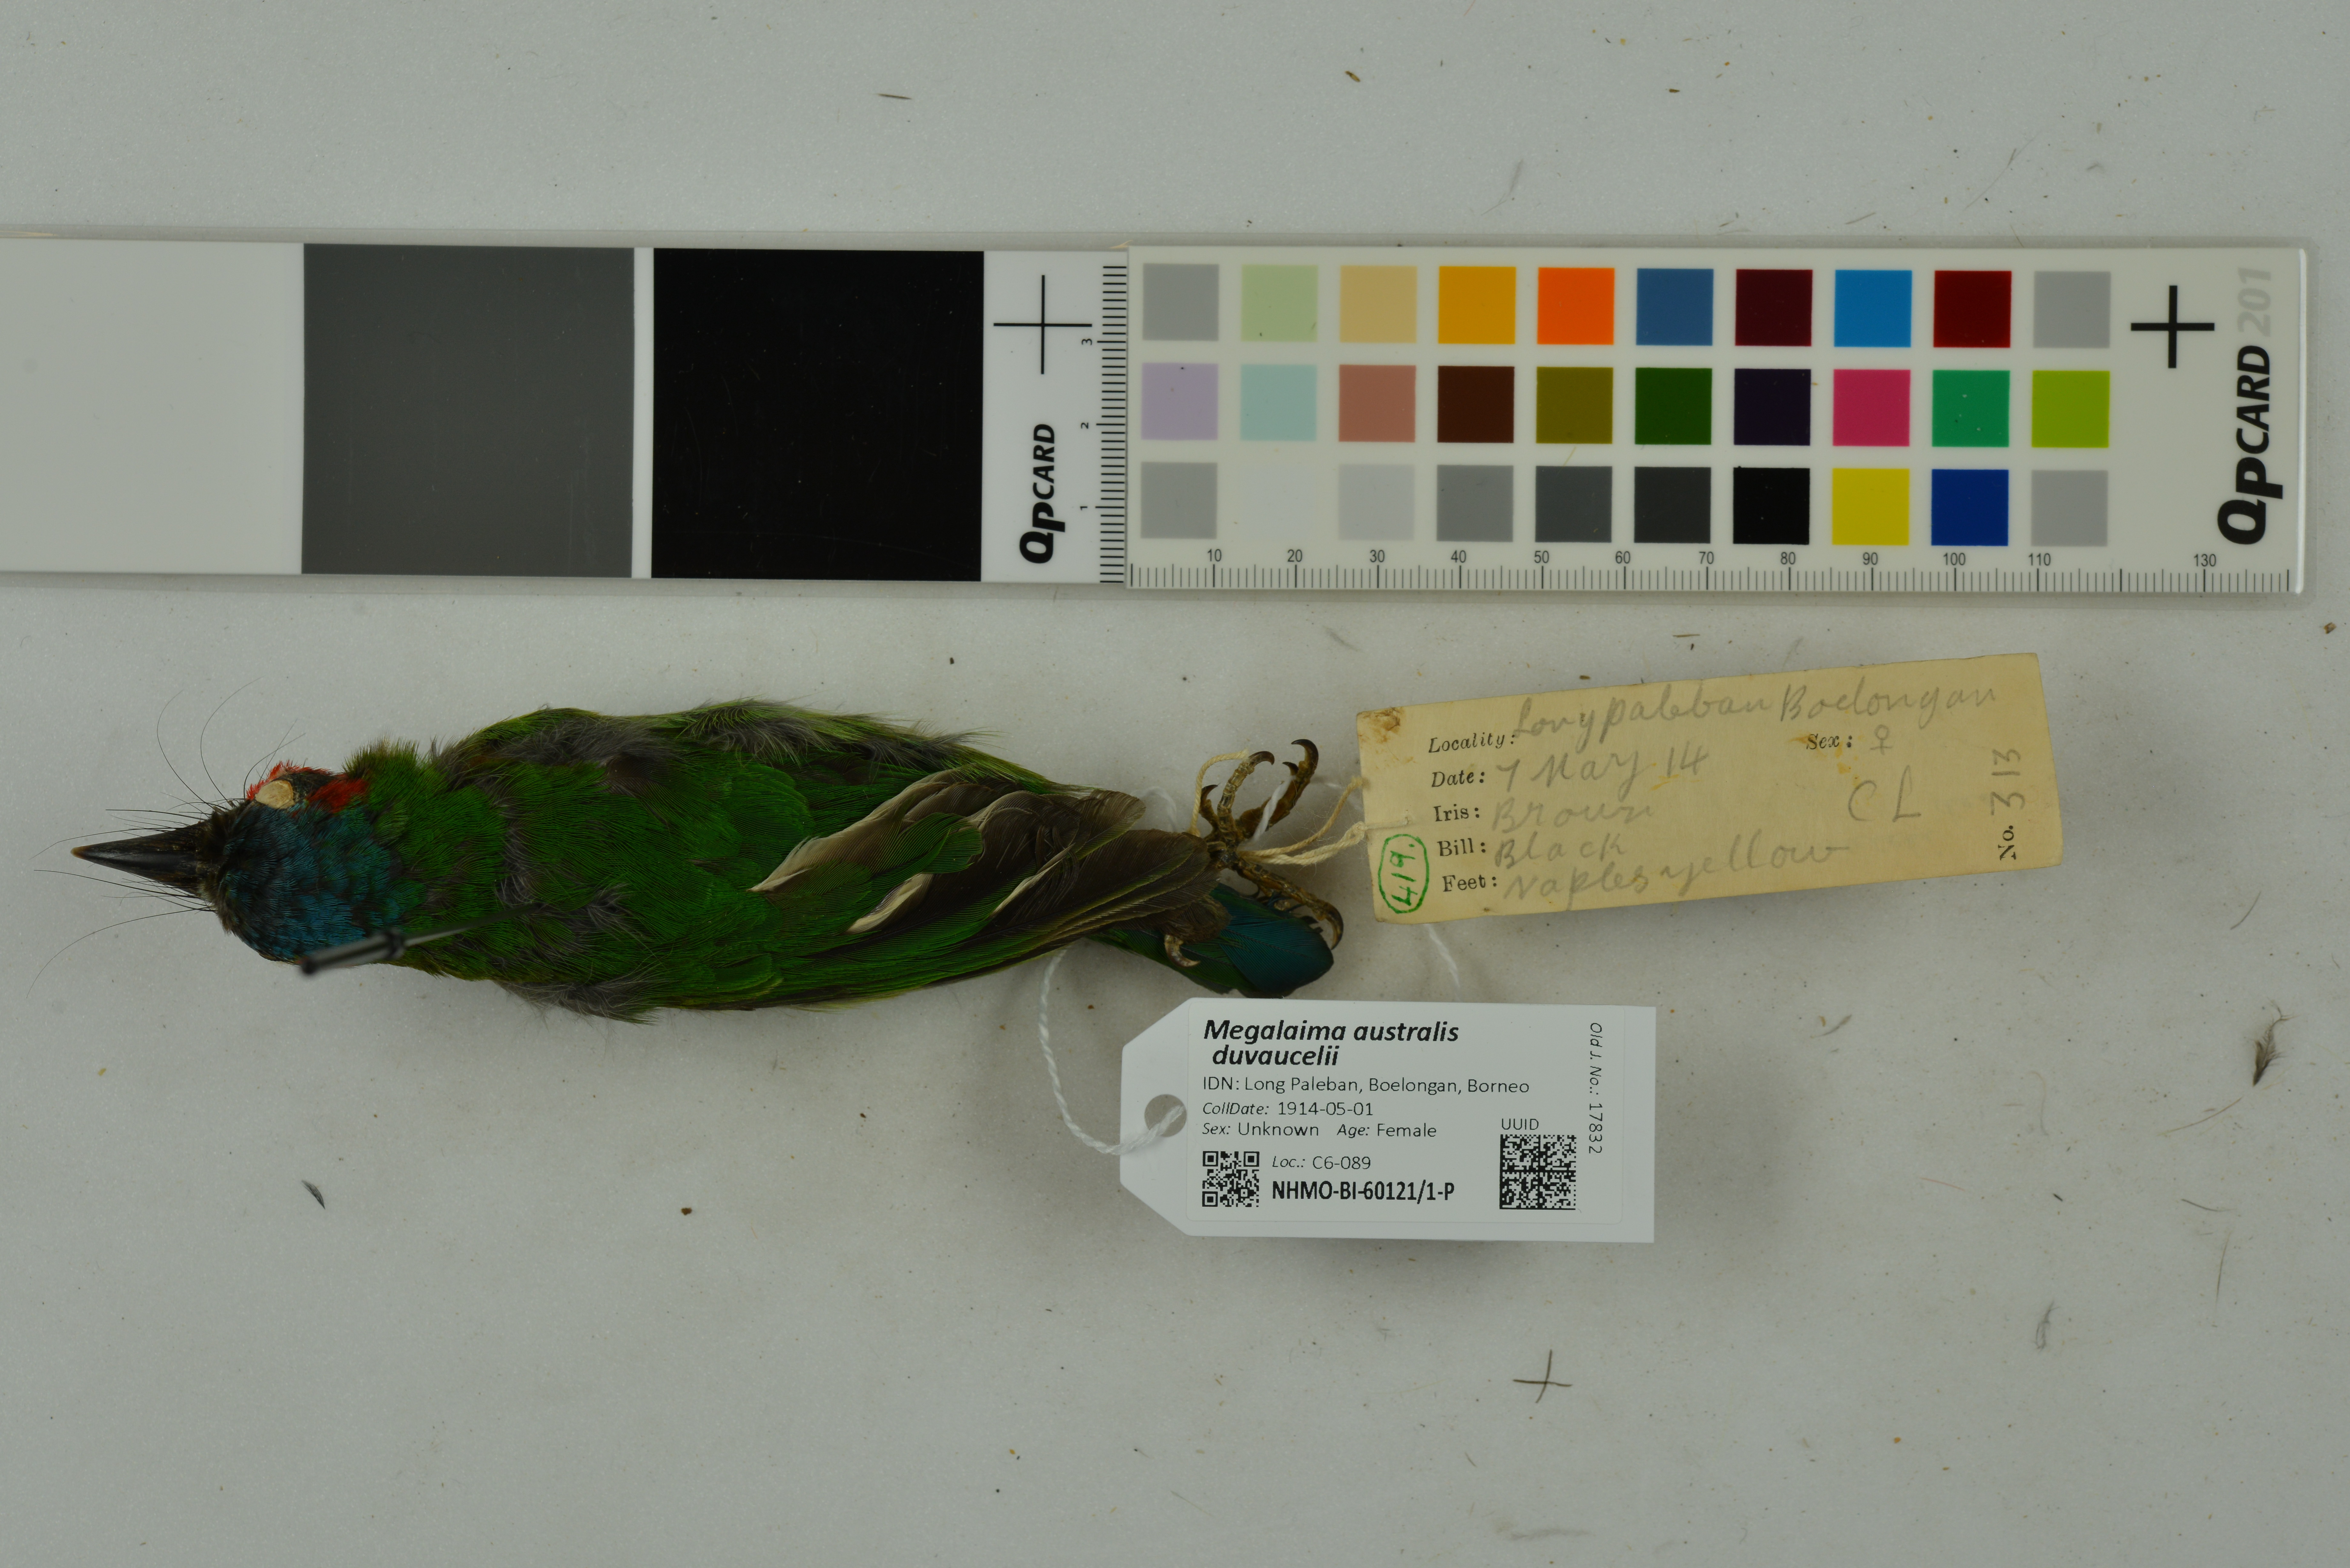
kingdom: Animalia
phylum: Chordata
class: Aves
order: Piciformes
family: Megalaimidae
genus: Psilopogon
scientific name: Psilopogon duvaucelii
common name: Blue-eared barbet
